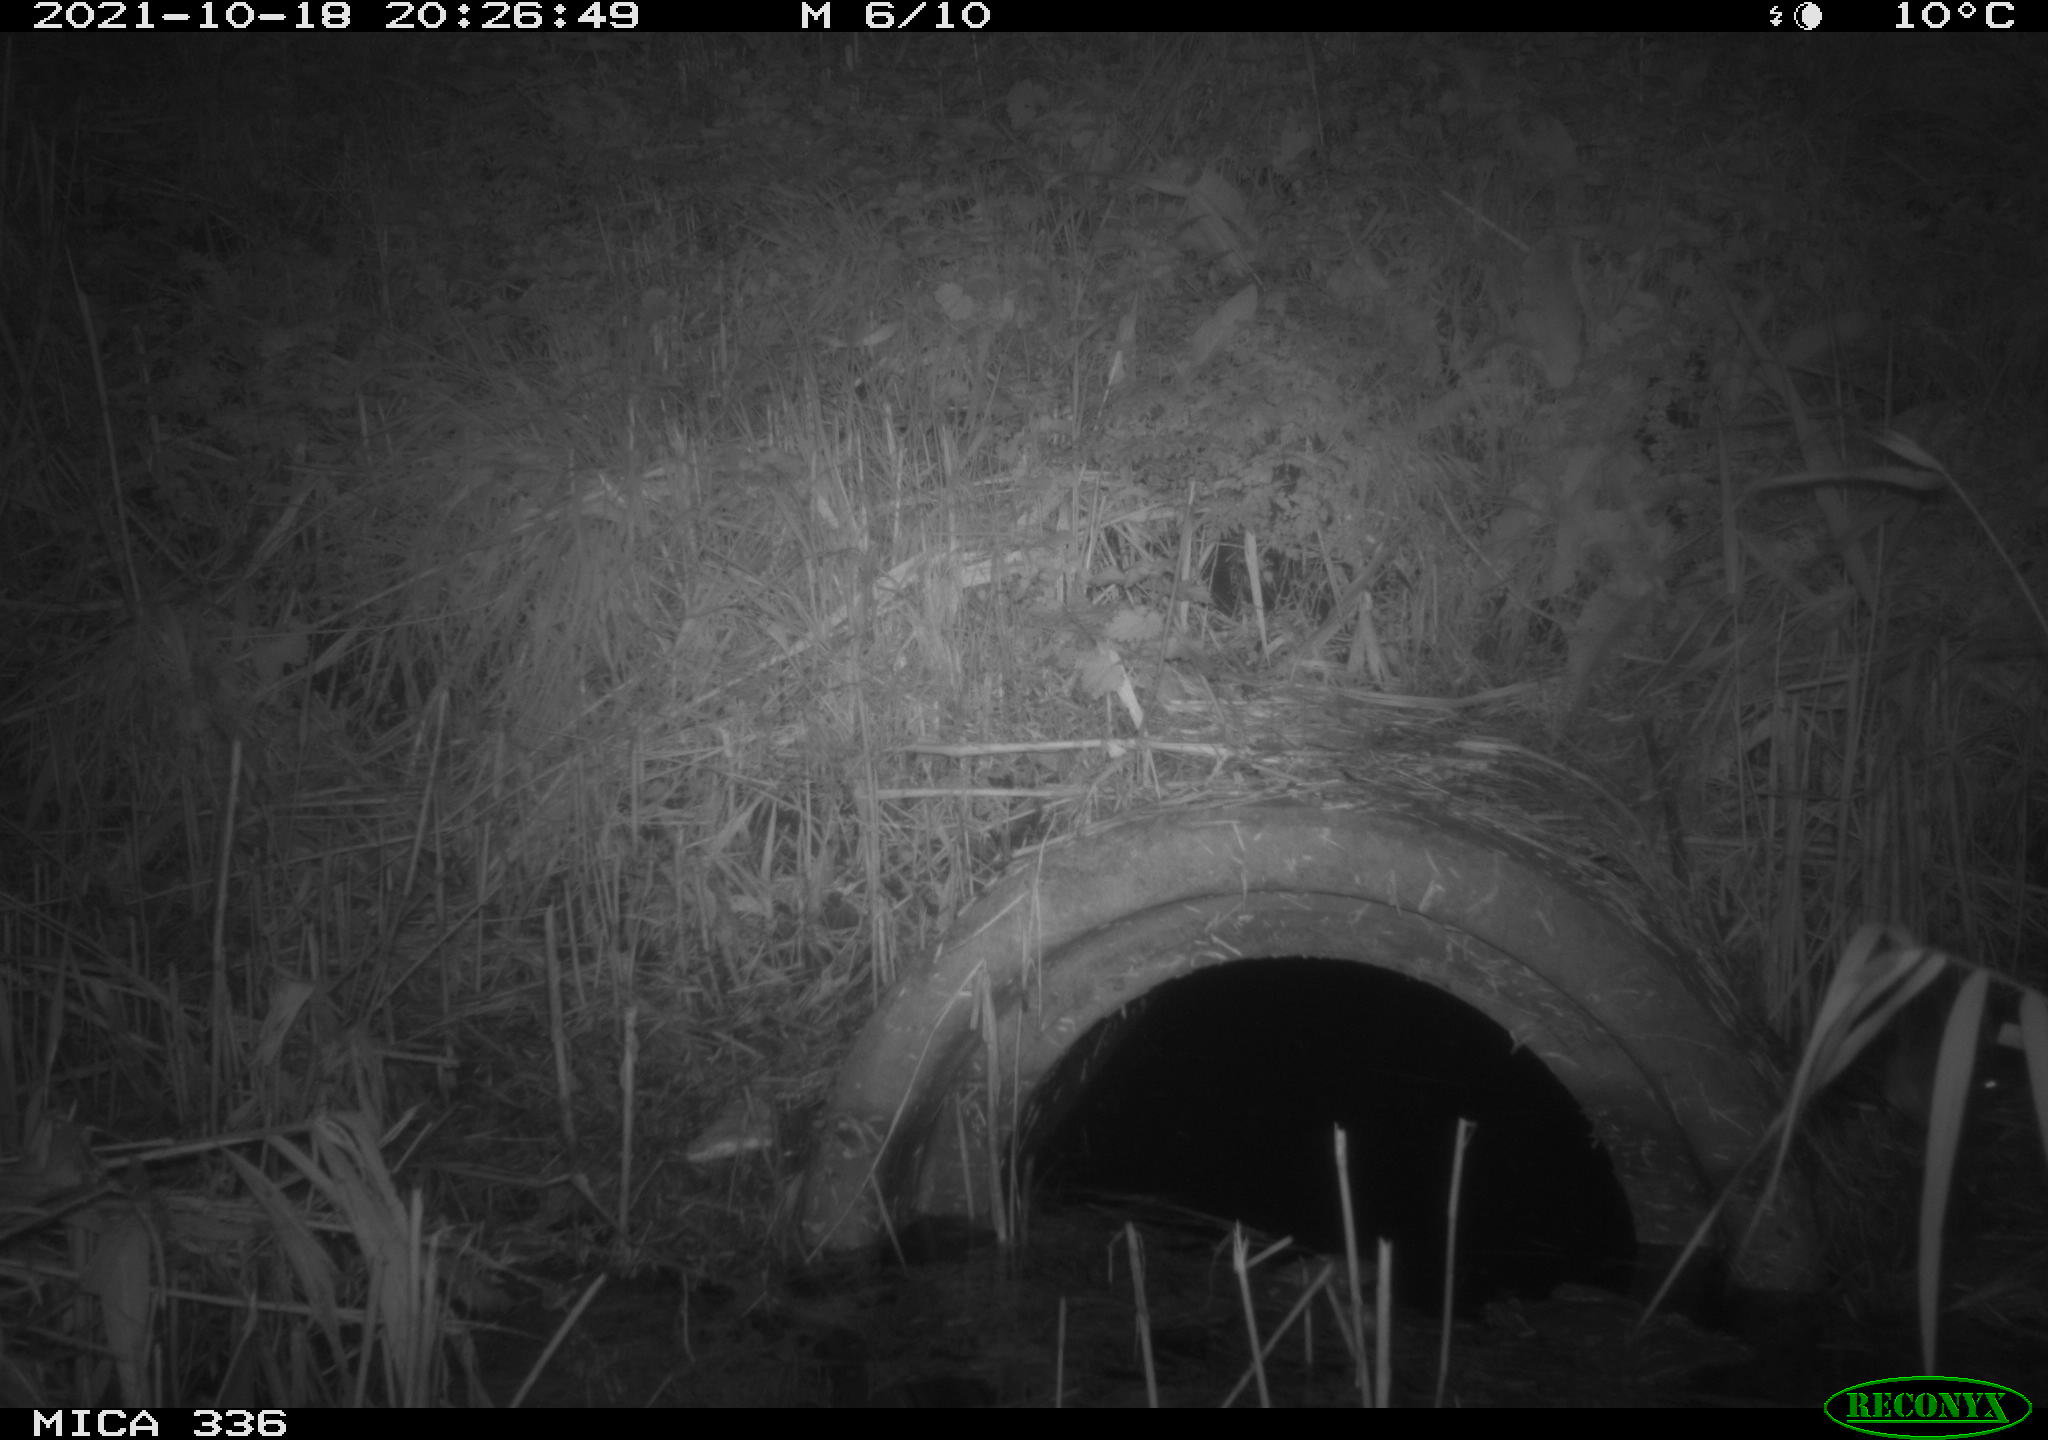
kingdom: Animalia
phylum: Chordata
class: Mammalia
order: Rodentia
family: Muridae
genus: Rattus
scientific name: Rattus norvegicus
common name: Brown rat
